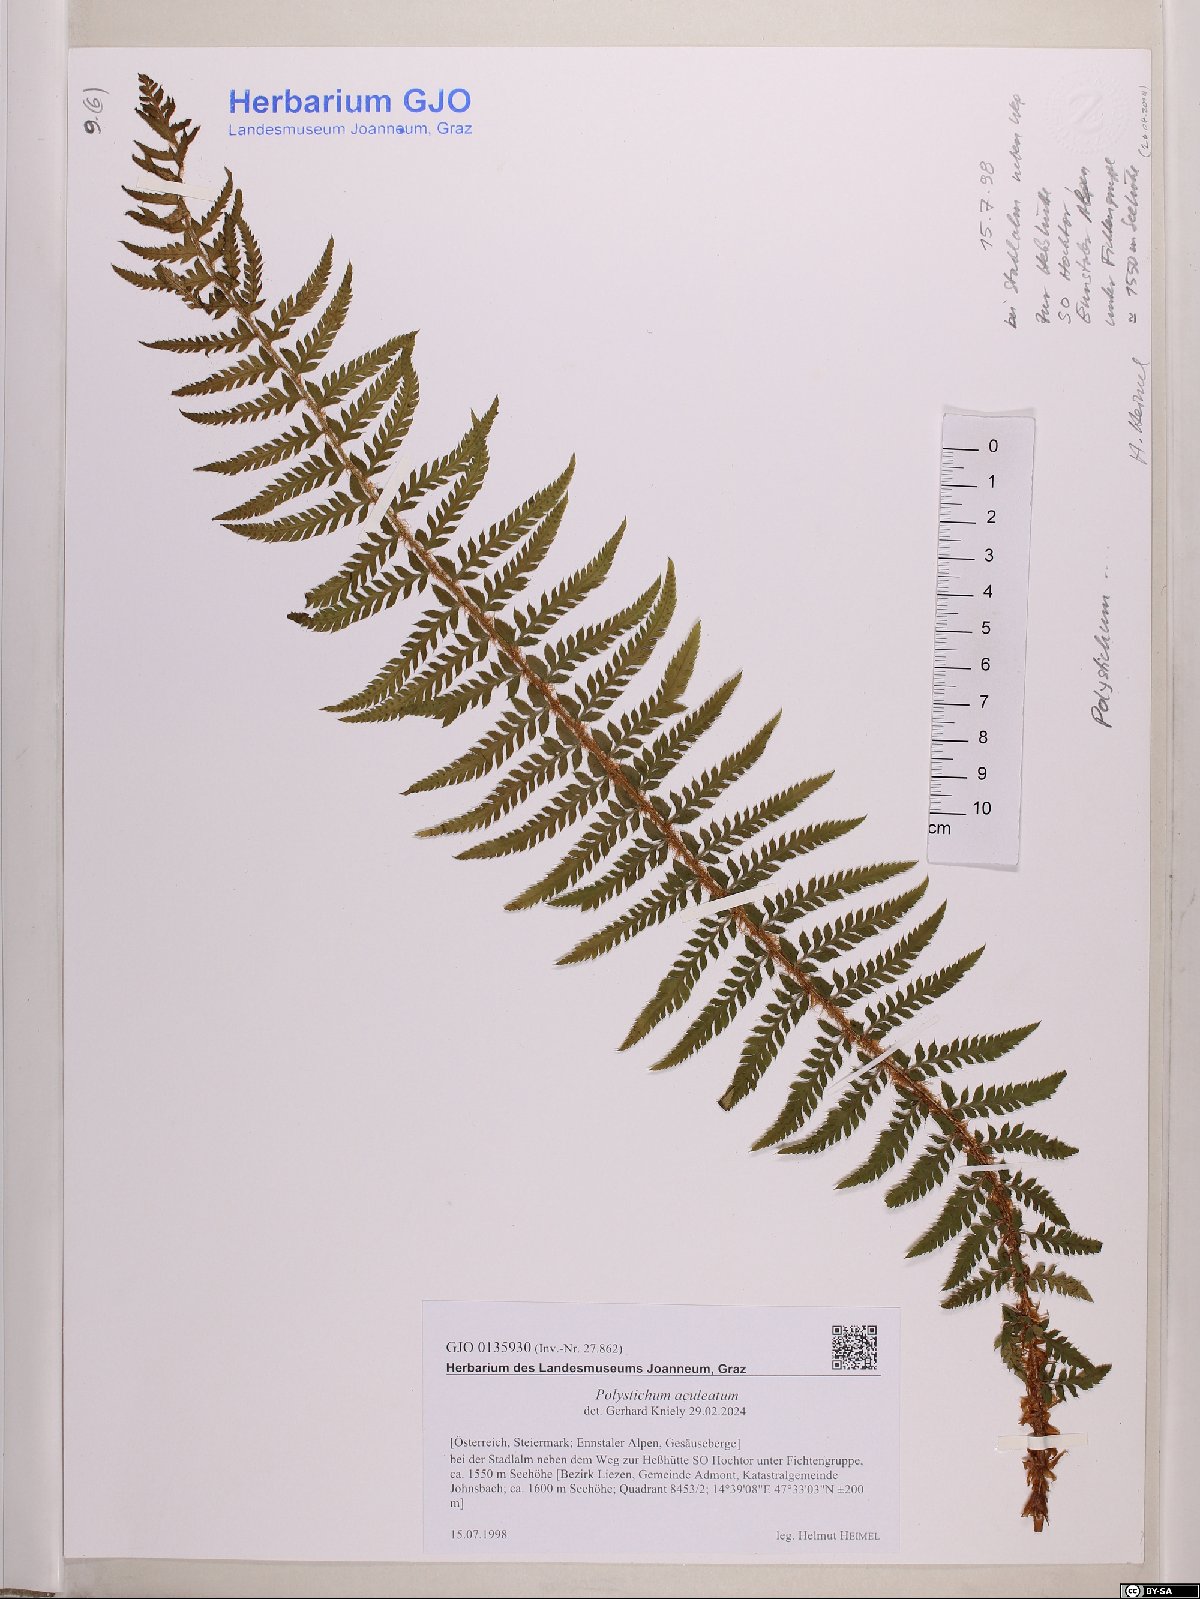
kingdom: Plantae
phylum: Tracheophyta
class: Polypodiopsida
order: Polypodiales
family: Dryopteridaceae
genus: Polystichum
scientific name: Polystichum aculeatum
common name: Hard shield-fern
